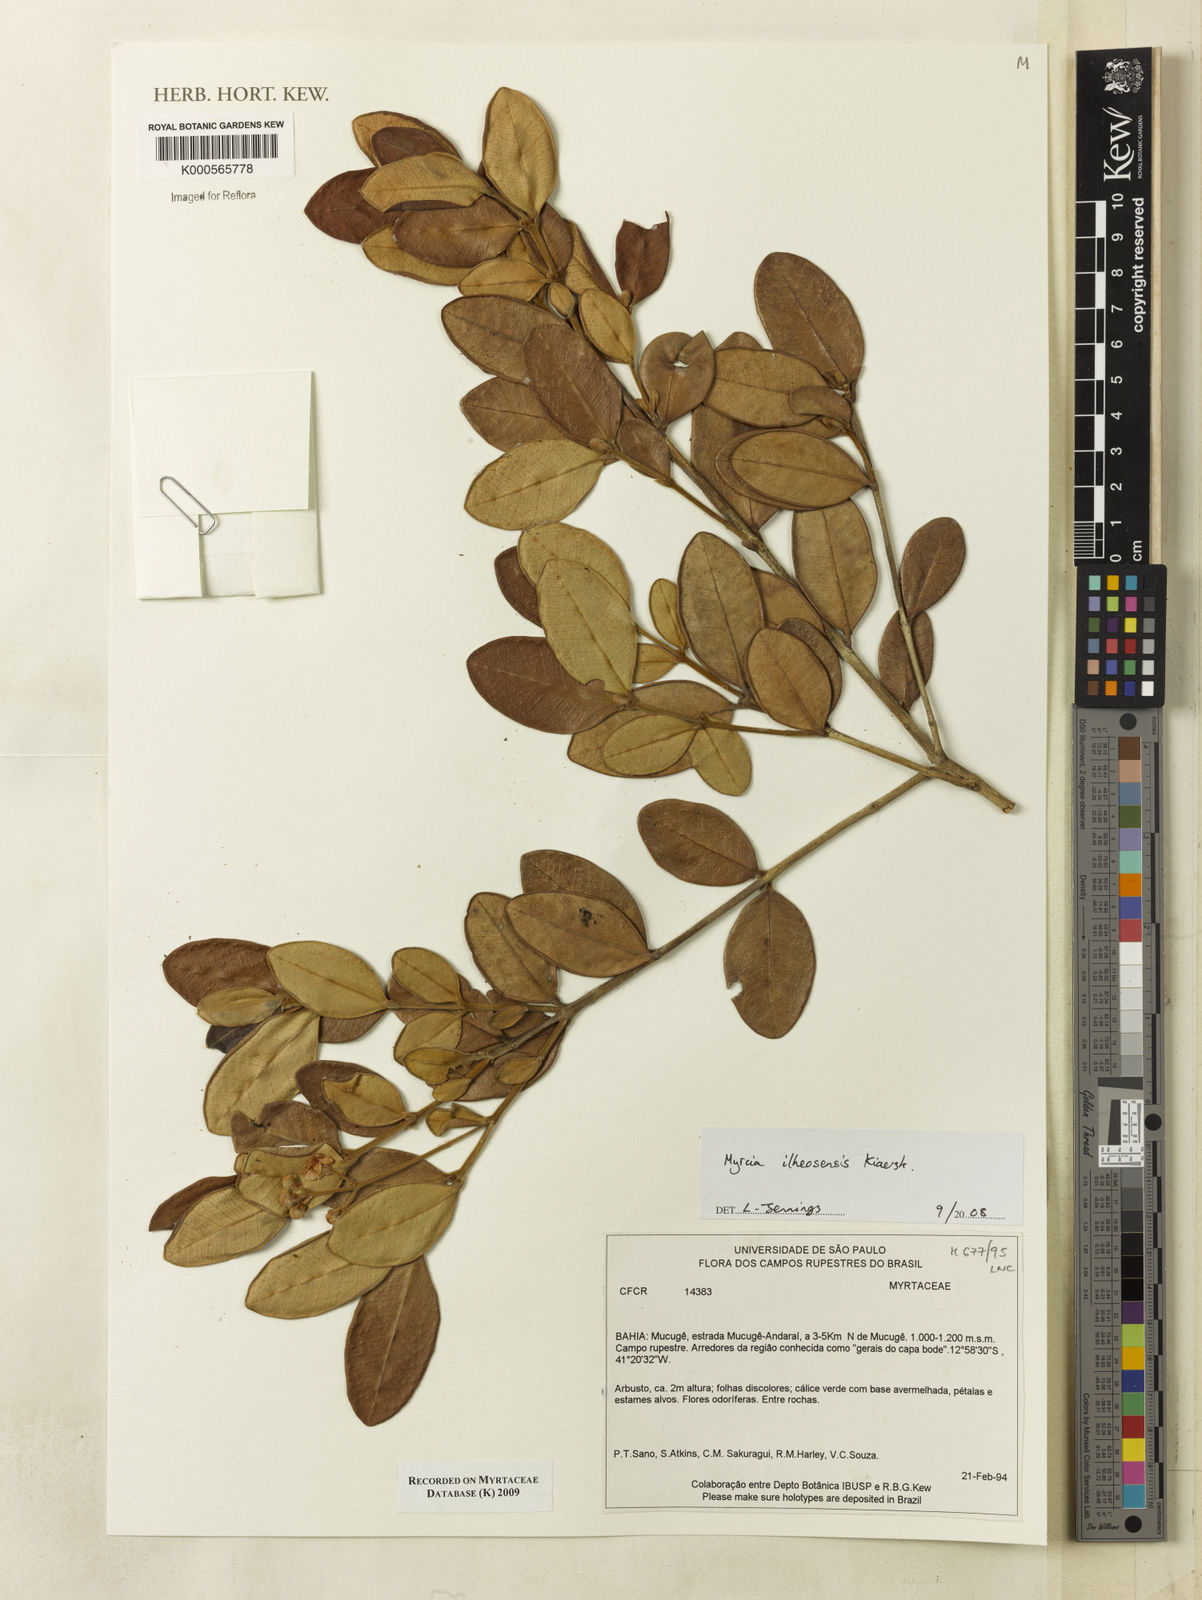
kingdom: Plantae
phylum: Tracheophyta
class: Magnoliopsida
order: Myrtales
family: Myrtaceae
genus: Myrcia
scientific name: Myrcia ilheosensis
